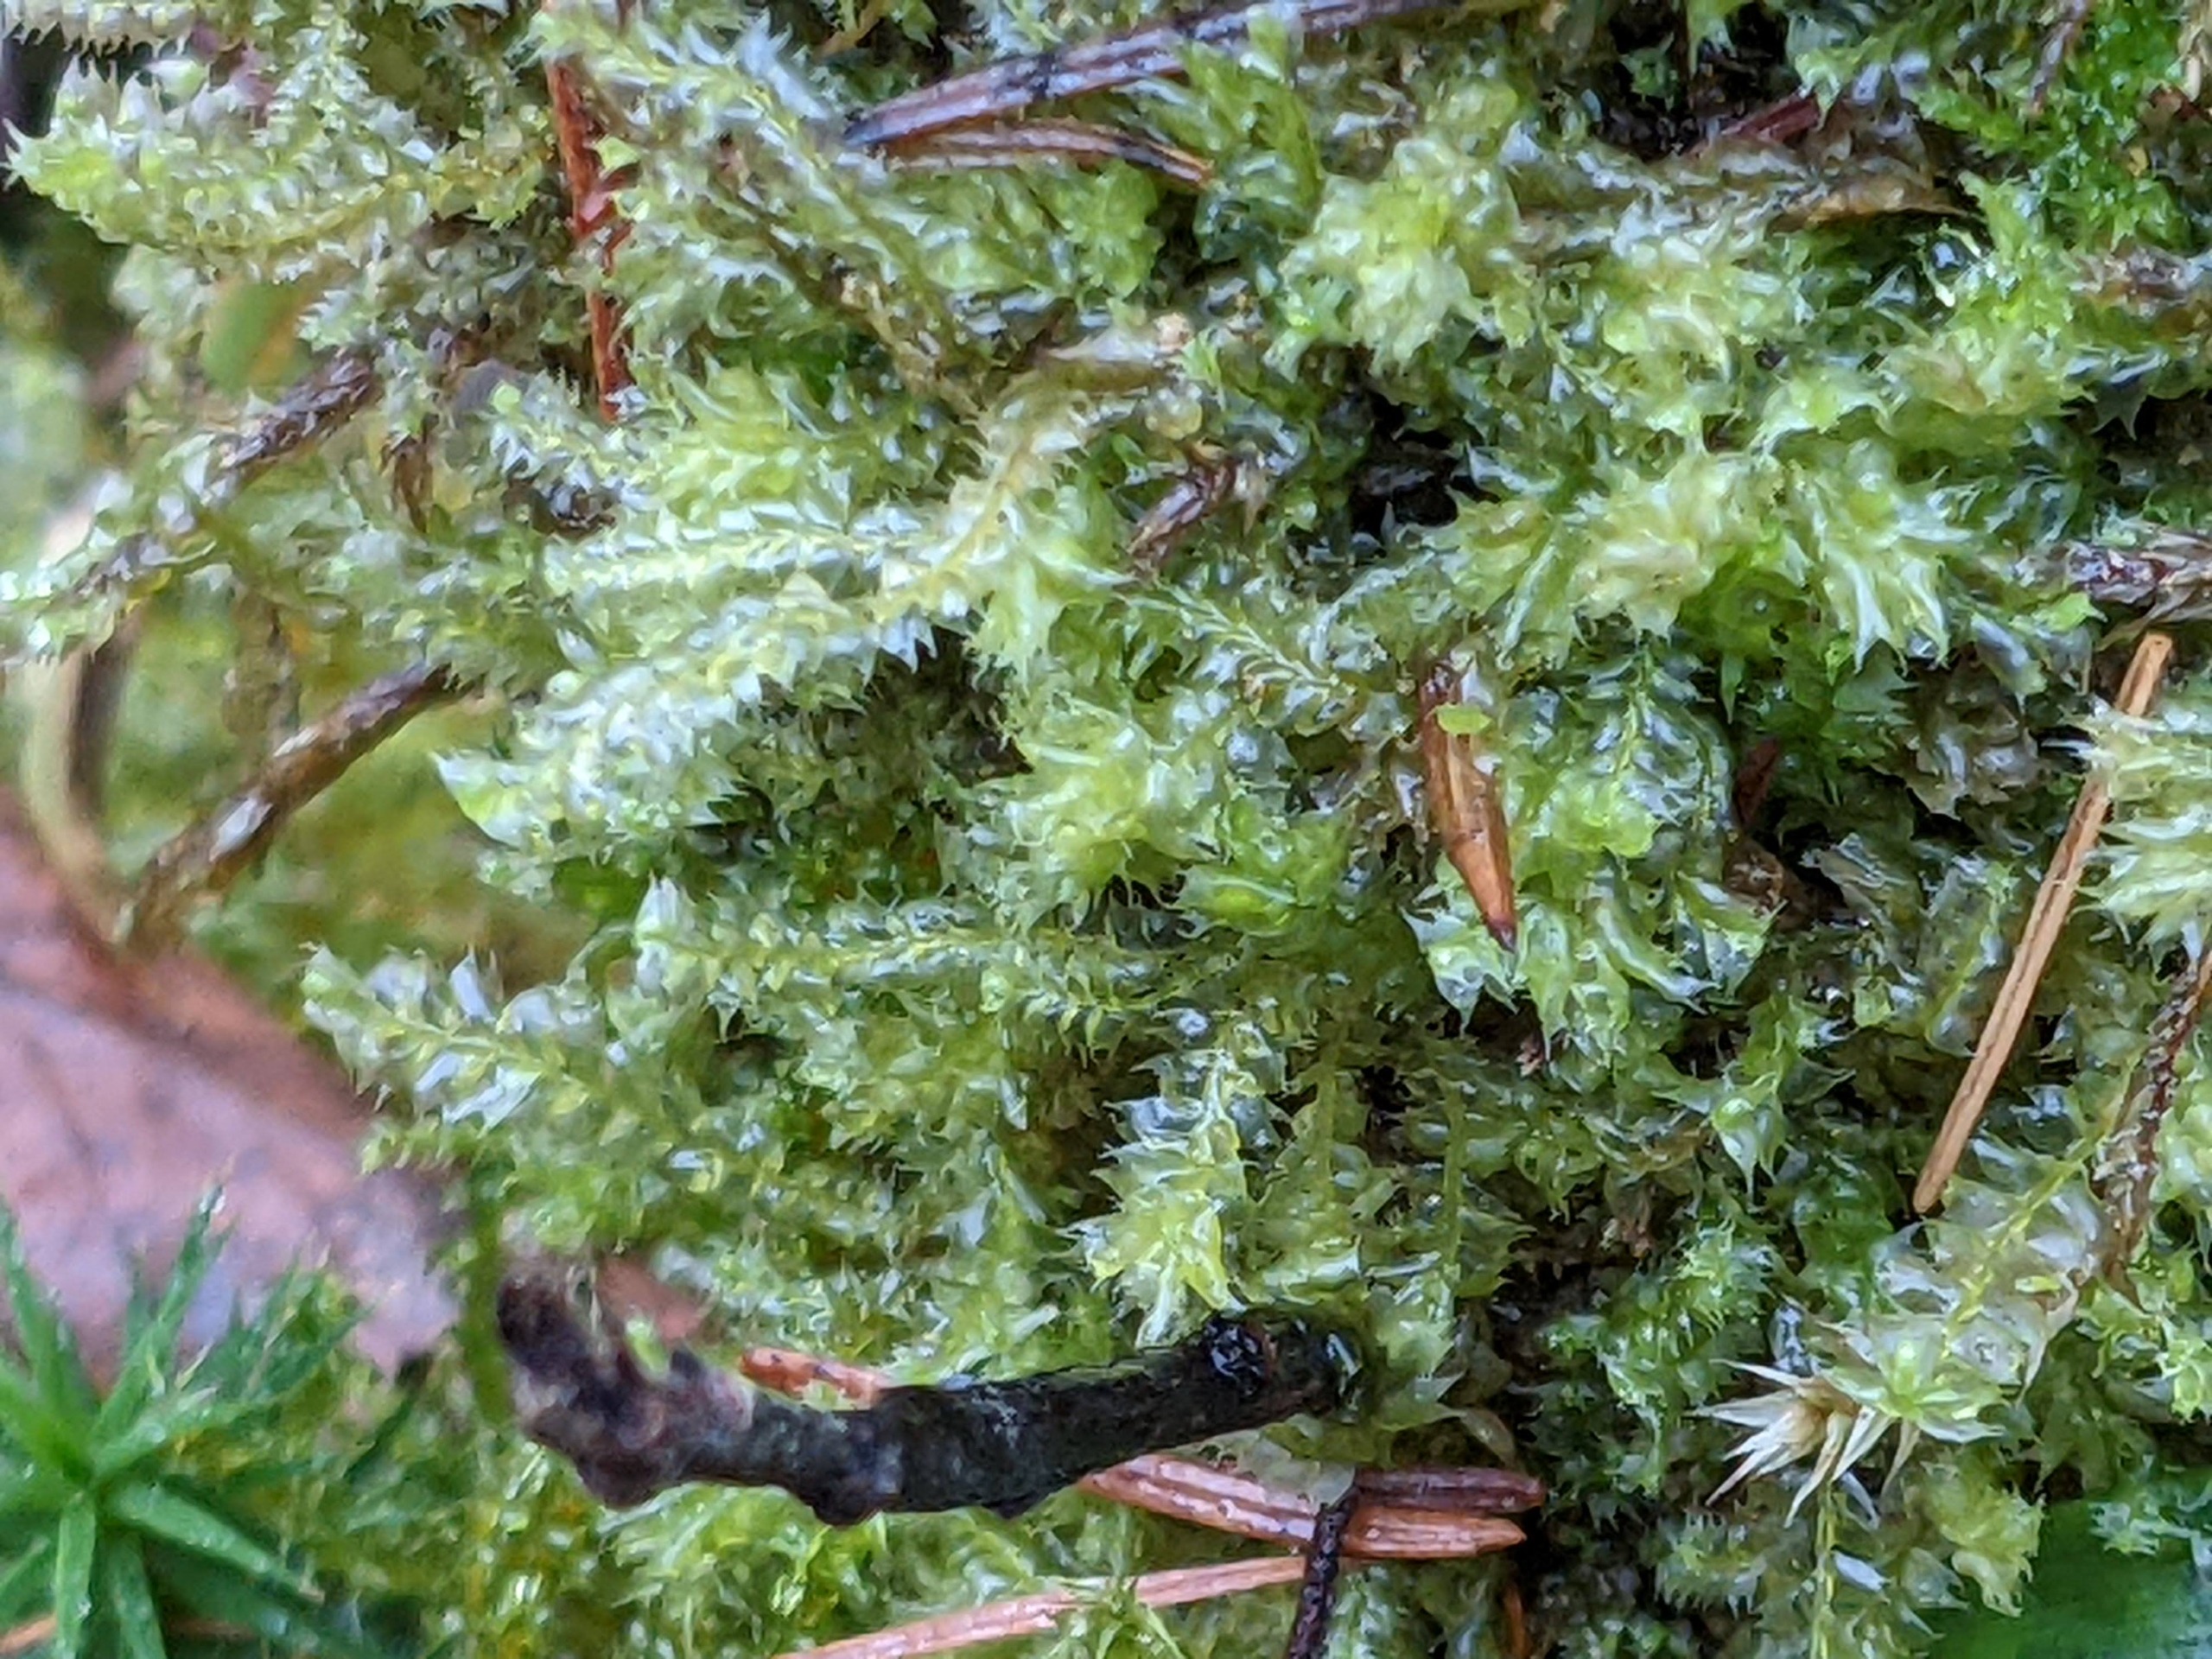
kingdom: Plantae
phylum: Marchantiophyta
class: Jungermanniopsida
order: Jungermanniales
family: Lophocoleaceae
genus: Lophocolea
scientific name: Lophocolea bidentata
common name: Sylspidset kamsvøb
